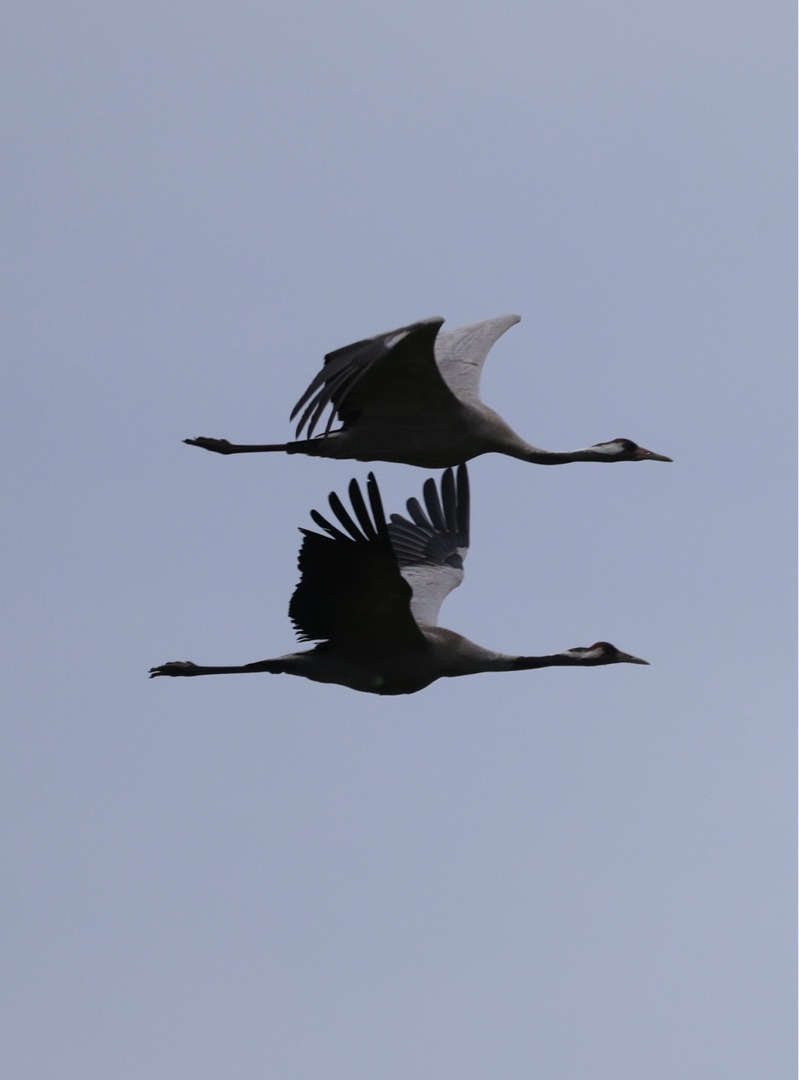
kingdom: Animalia
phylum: Chordata
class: Aves
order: Gruiformes
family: Gruidae
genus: Grus
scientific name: Grus grus
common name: Trane
